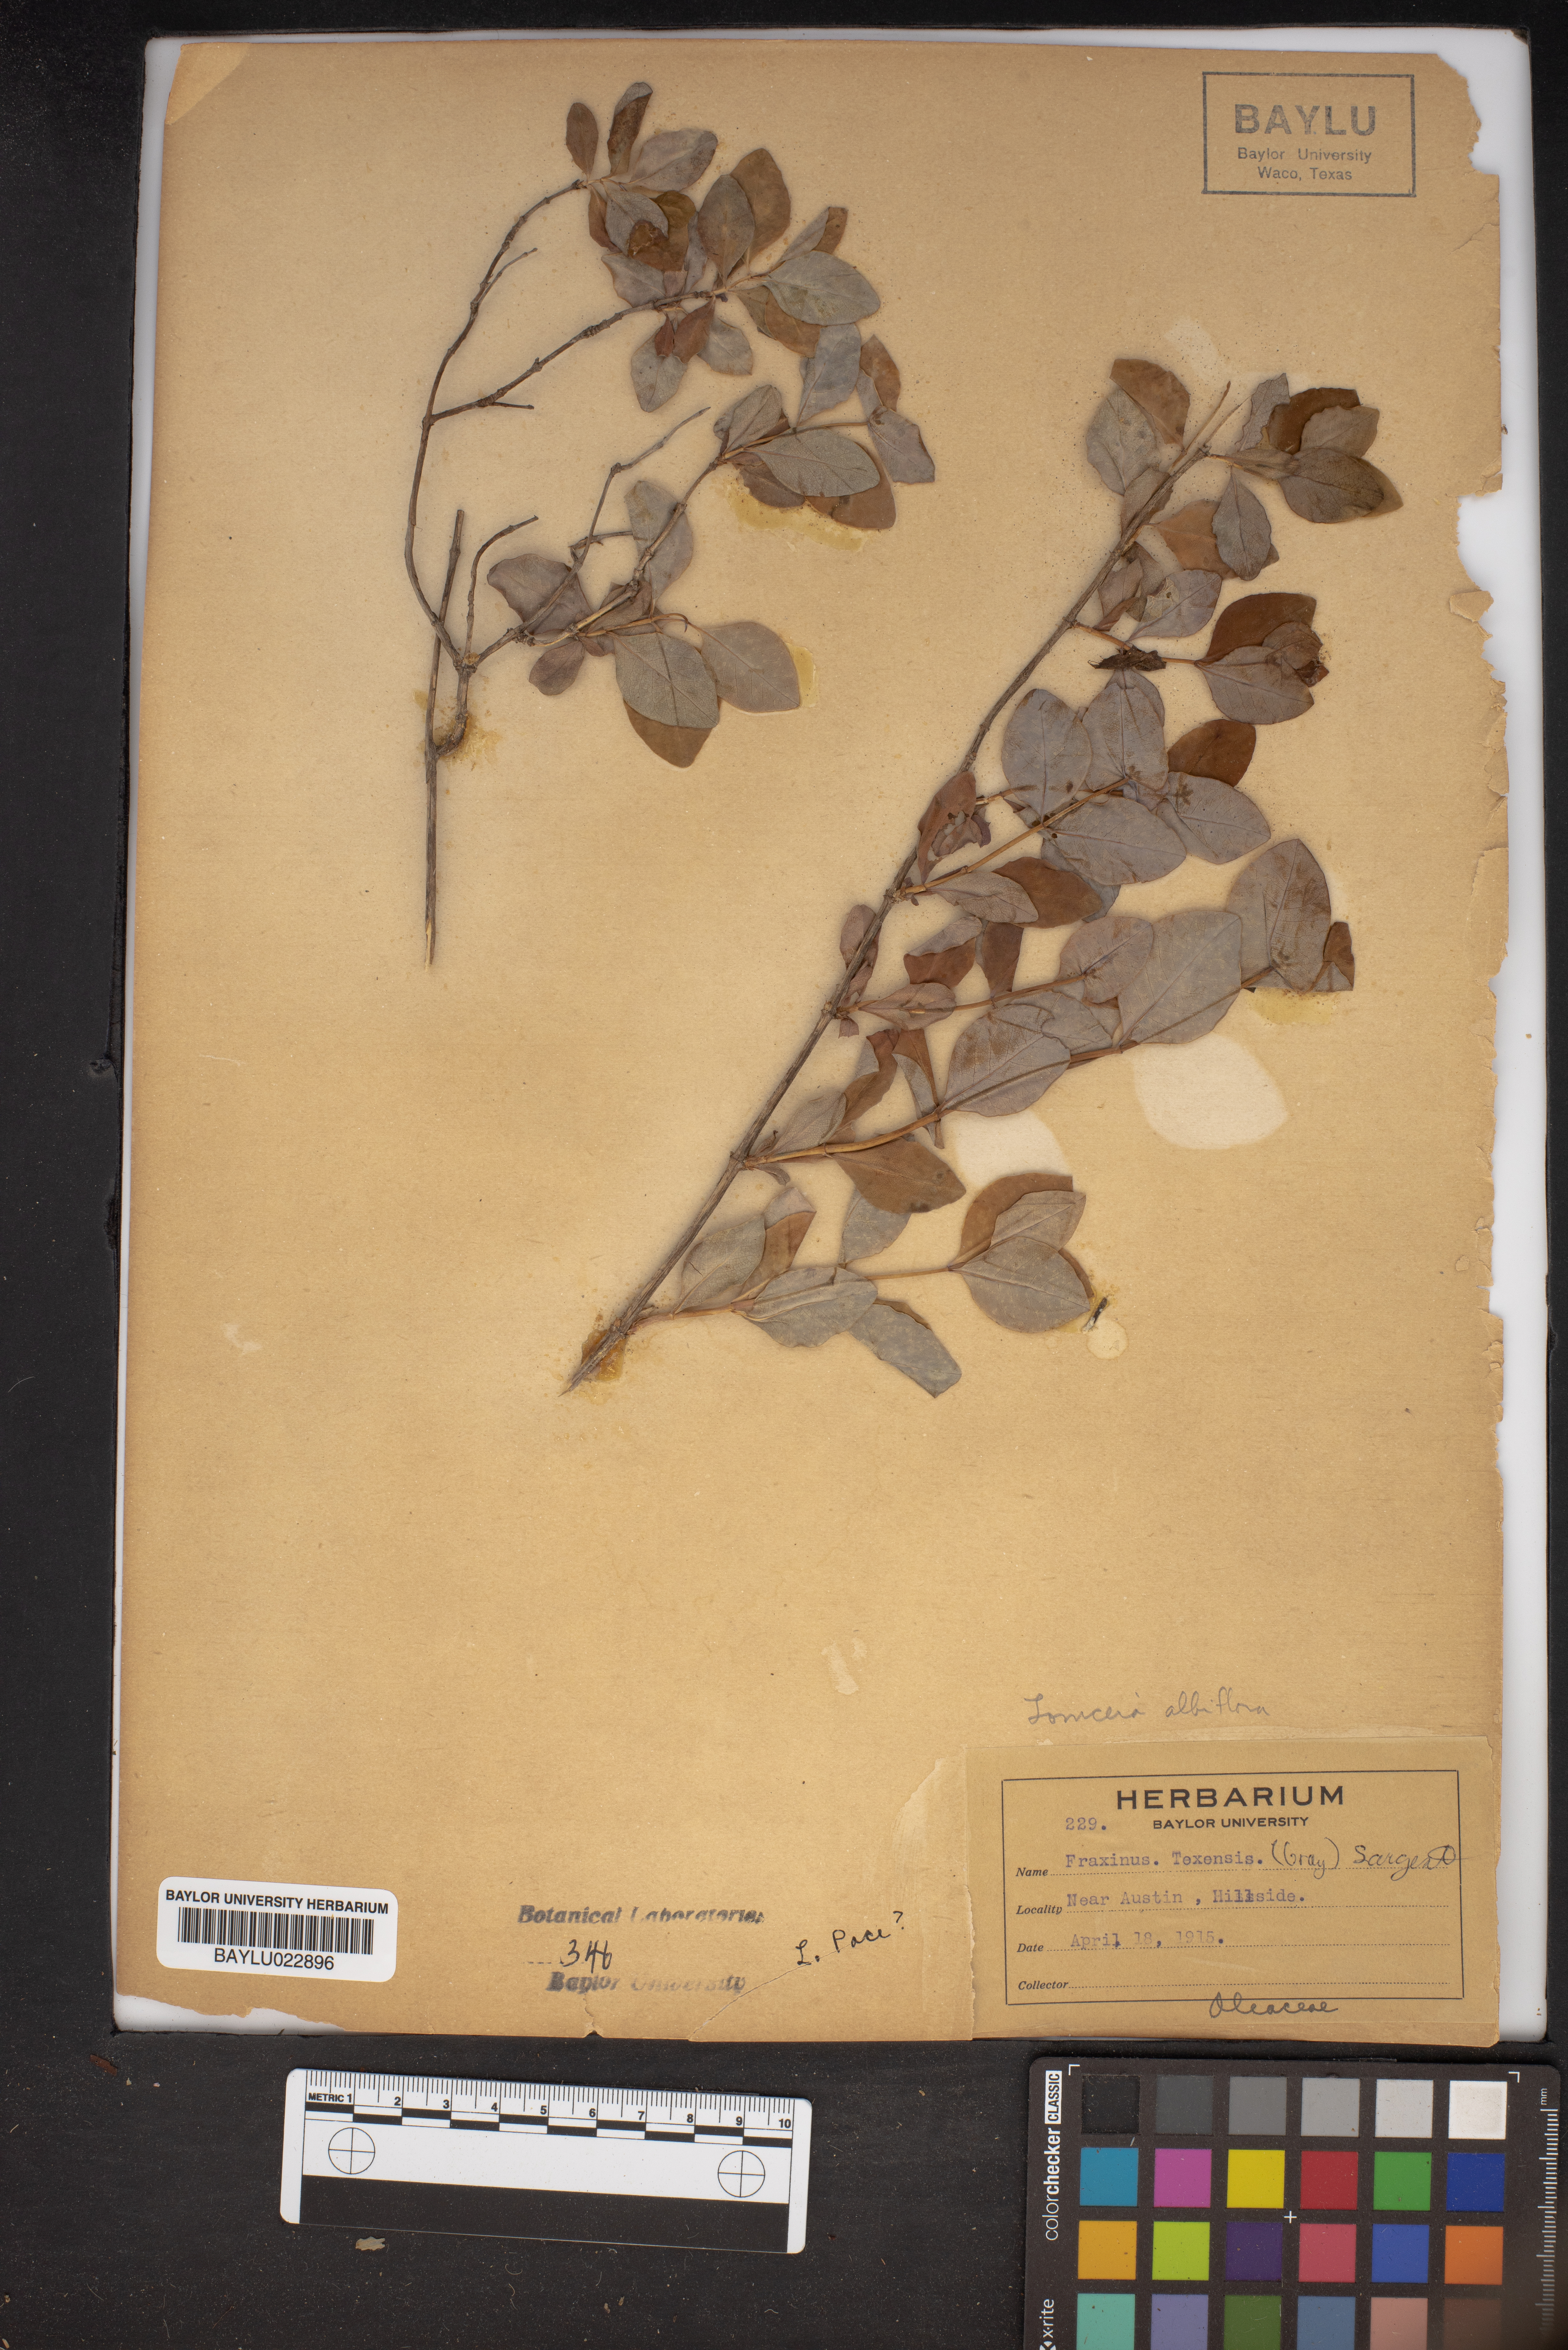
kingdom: Plantae
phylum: Tracheophyta
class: Magnoliopsida
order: Lamiales
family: Oleaceae
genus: Fraxinus
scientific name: Fraxinus albicans
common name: Texas ash
